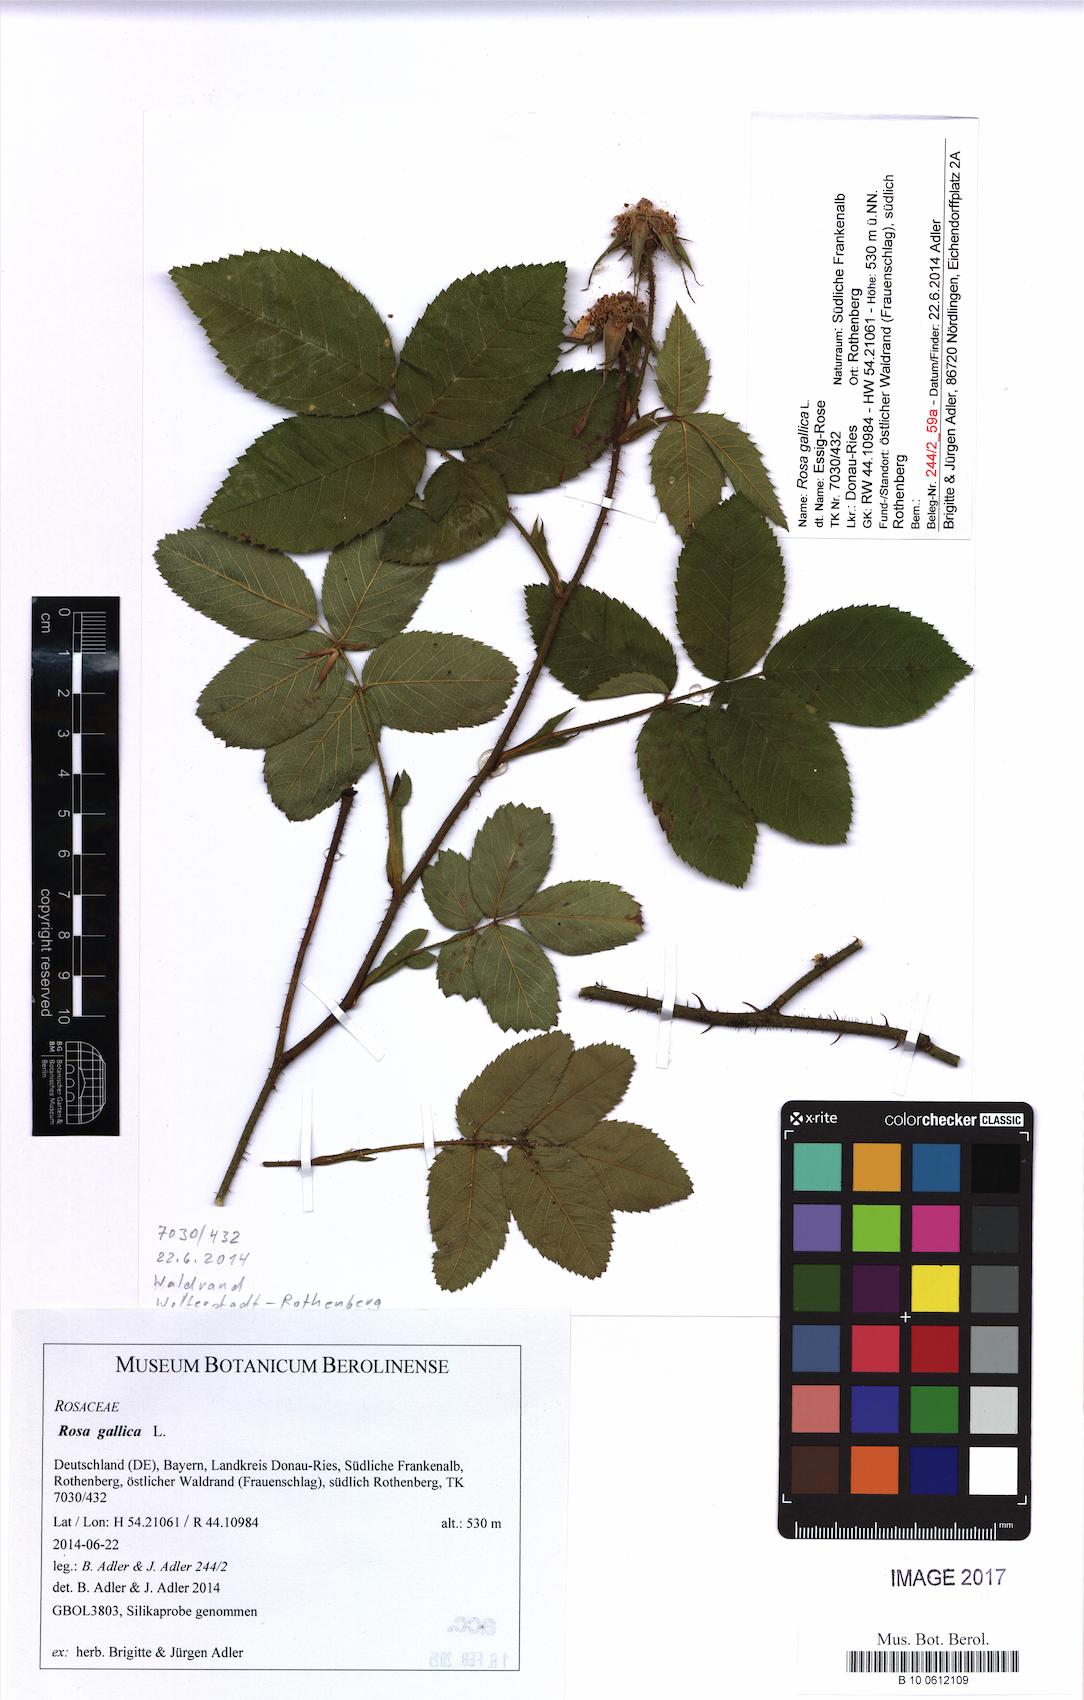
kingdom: Plantae
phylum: Tracheophyta
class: Magnoliopsida
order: Rosales
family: Rosaceae
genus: Rosa
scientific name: Rosa gallica
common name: French rose
